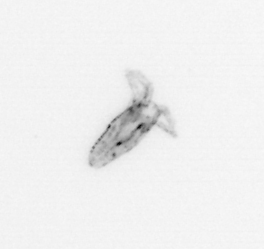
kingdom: Animalia
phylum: Arthropoda
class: Copepoda
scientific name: Copepoda
